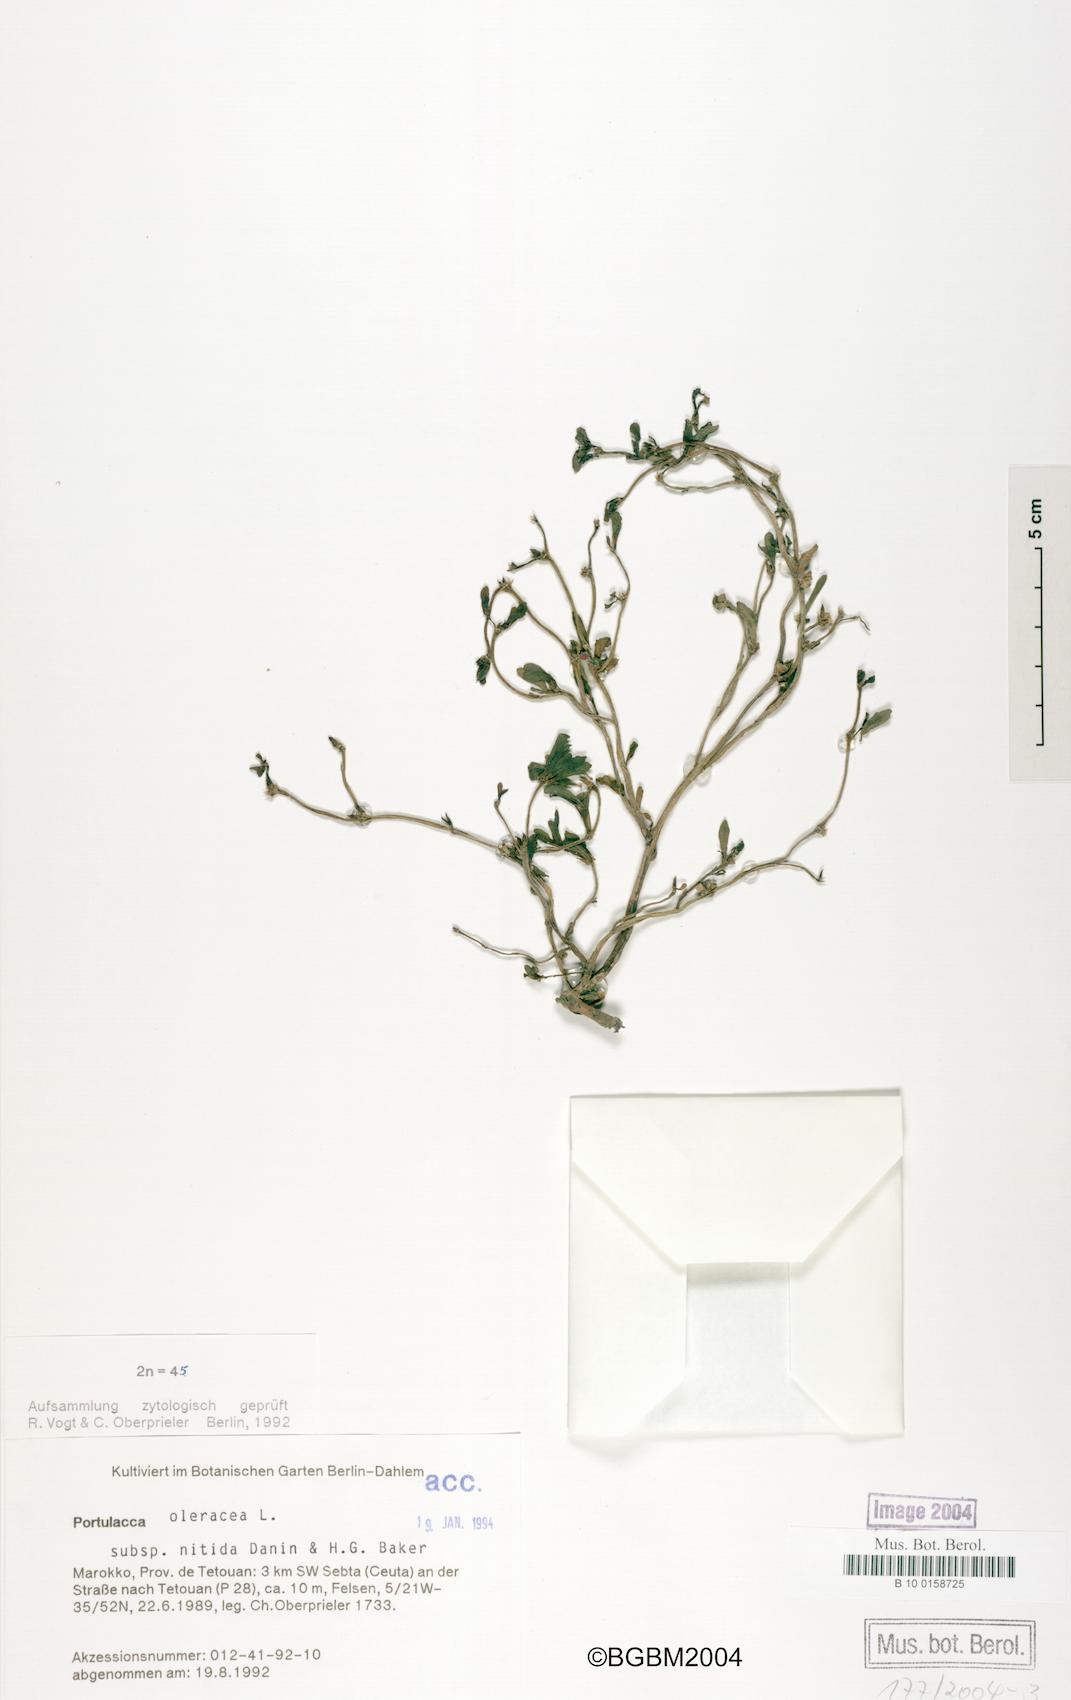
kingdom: Plantae
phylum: Tracheophyta
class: Magnoliopsida
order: Caryophyllales
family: Portulacaceae
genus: Portulaca
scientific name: Portulaca nitida
